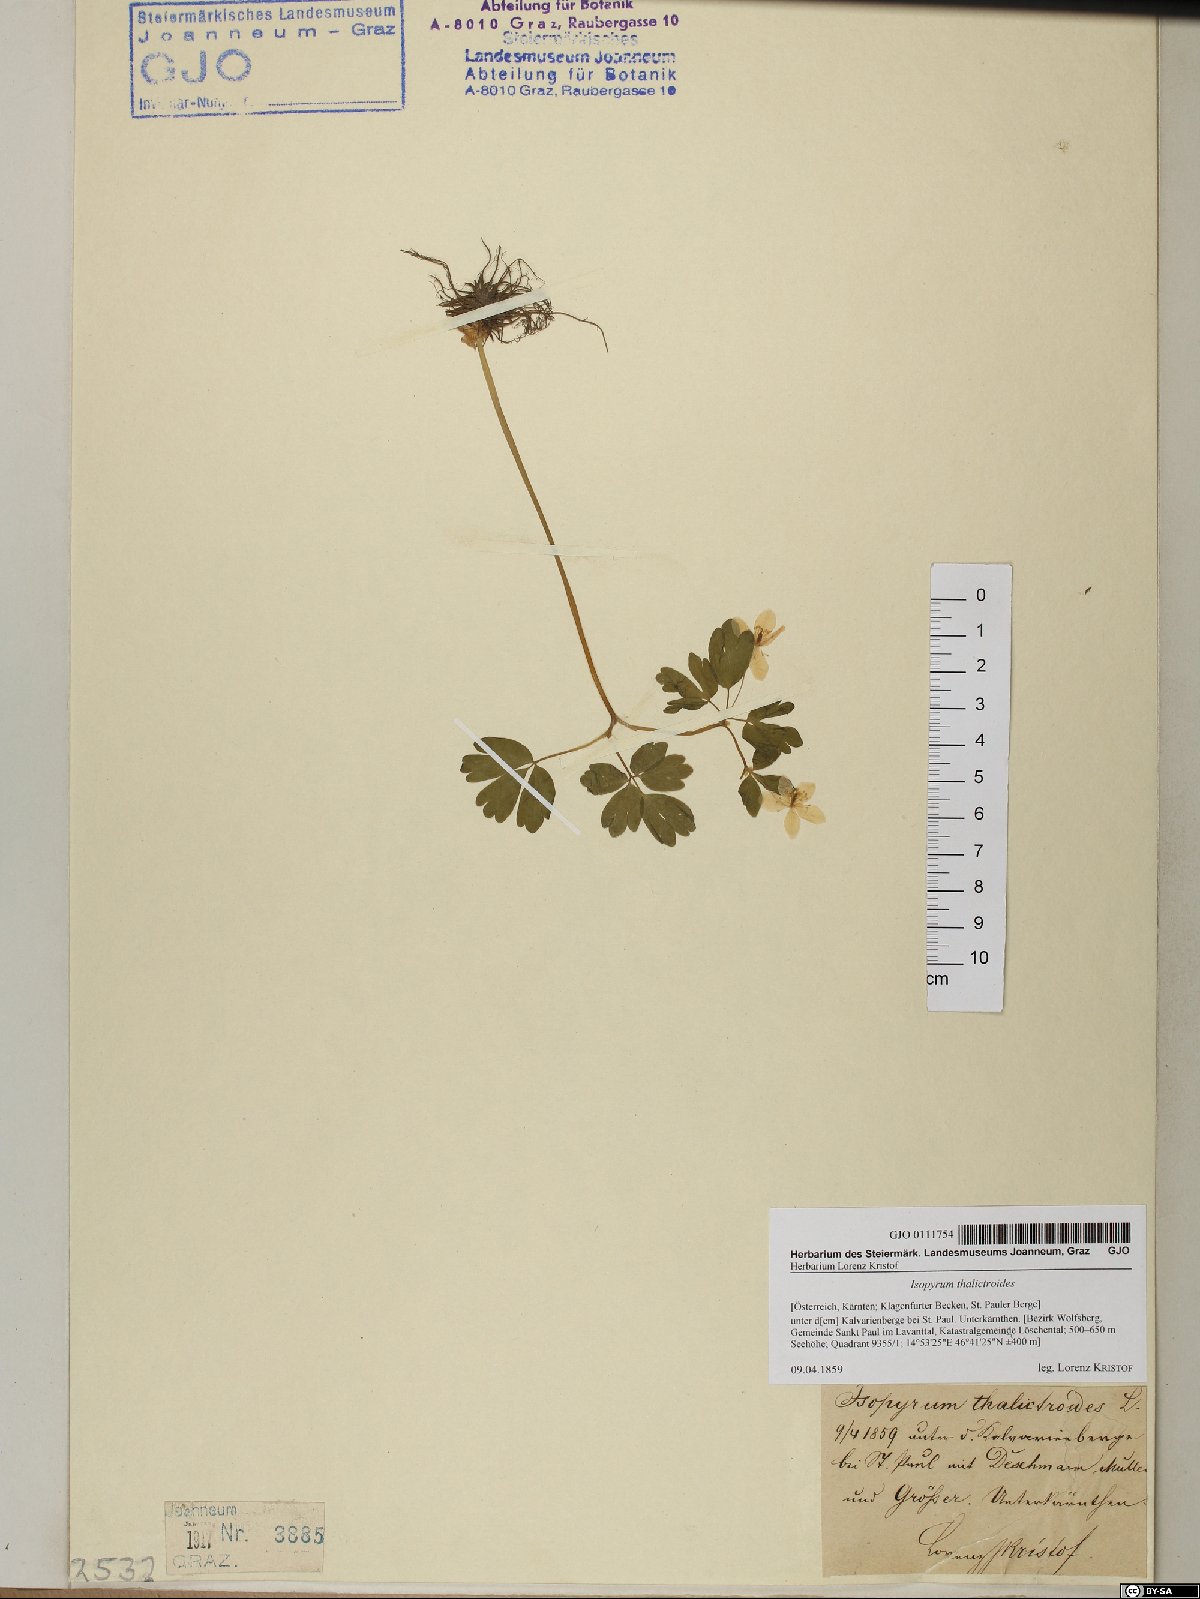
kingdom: Plantae
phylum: Tracheophyta
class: Magnoliopsida
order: Ranunculales
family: Ranunculaceae
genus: Isopyrum
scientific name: Isopyrum thalictroides
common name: Isopyrum
